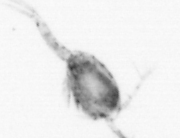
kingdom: Animalia
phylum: Arthropoda
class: Copepoda
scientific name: Copepoda
